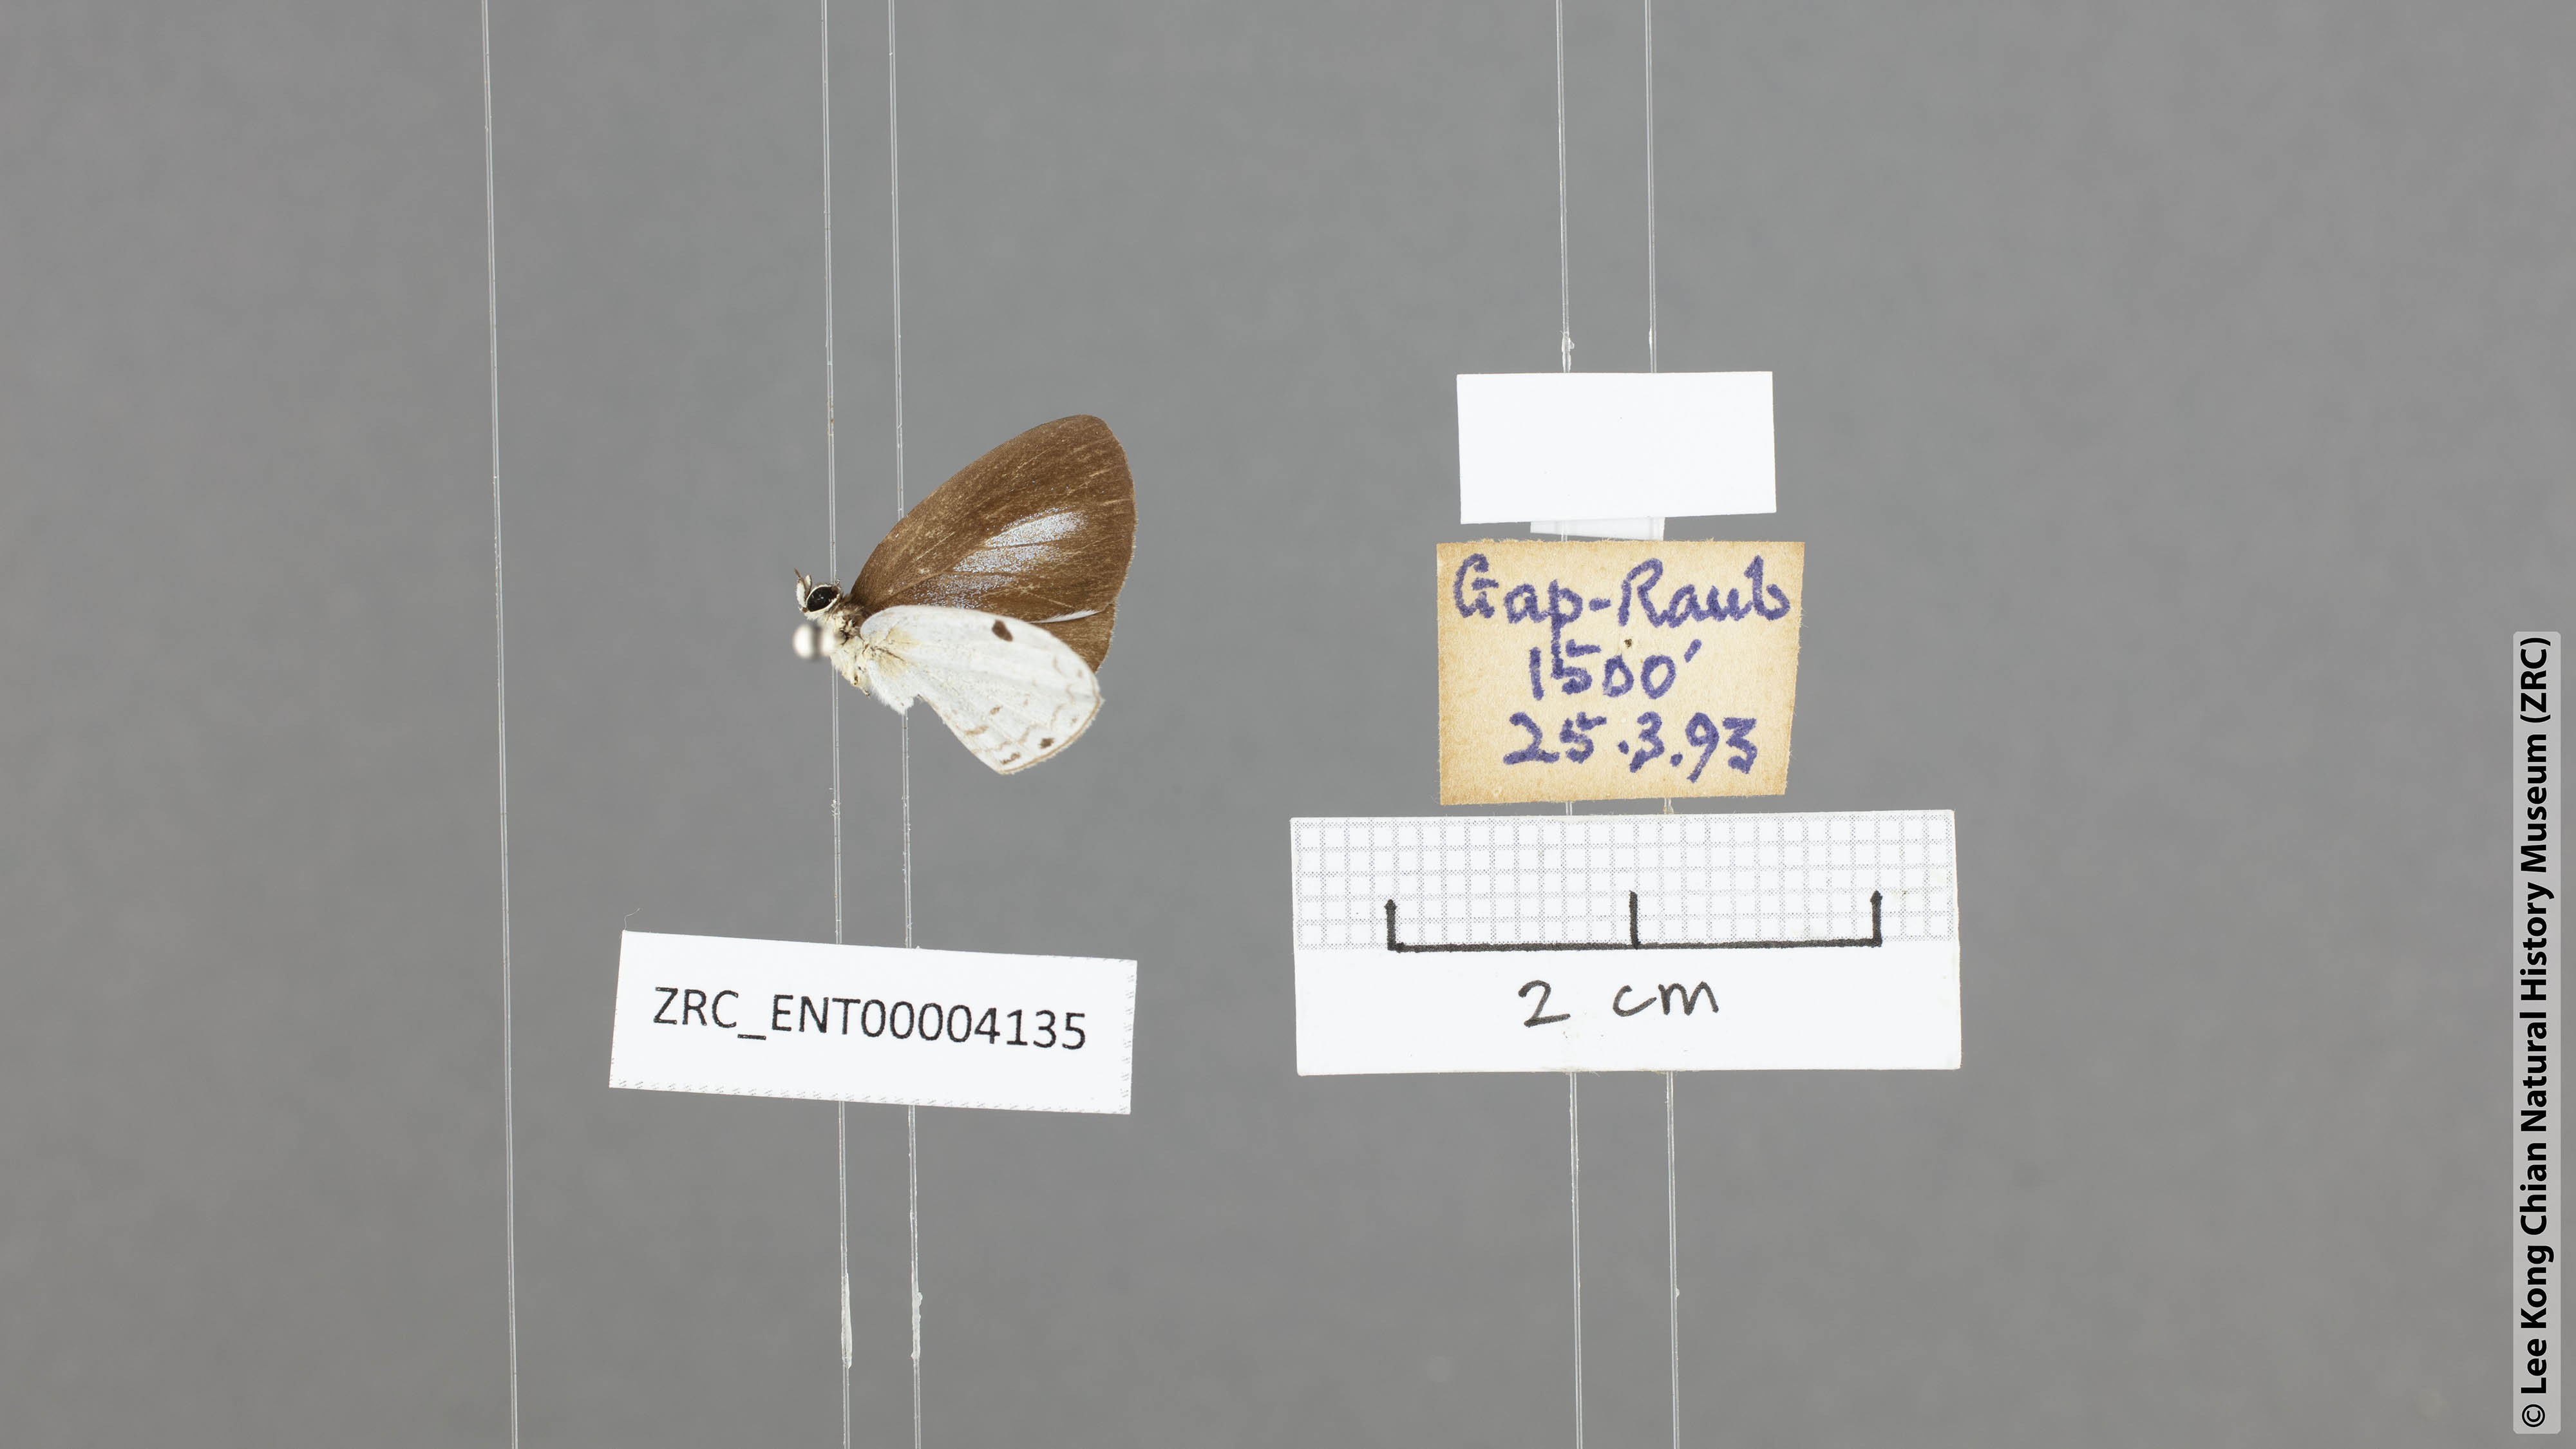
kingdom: Animalia
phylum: Arthropoda
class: Insecta
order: Lepidoptera
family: Lycaenidae
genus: Cebrella
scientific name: Cebrella
